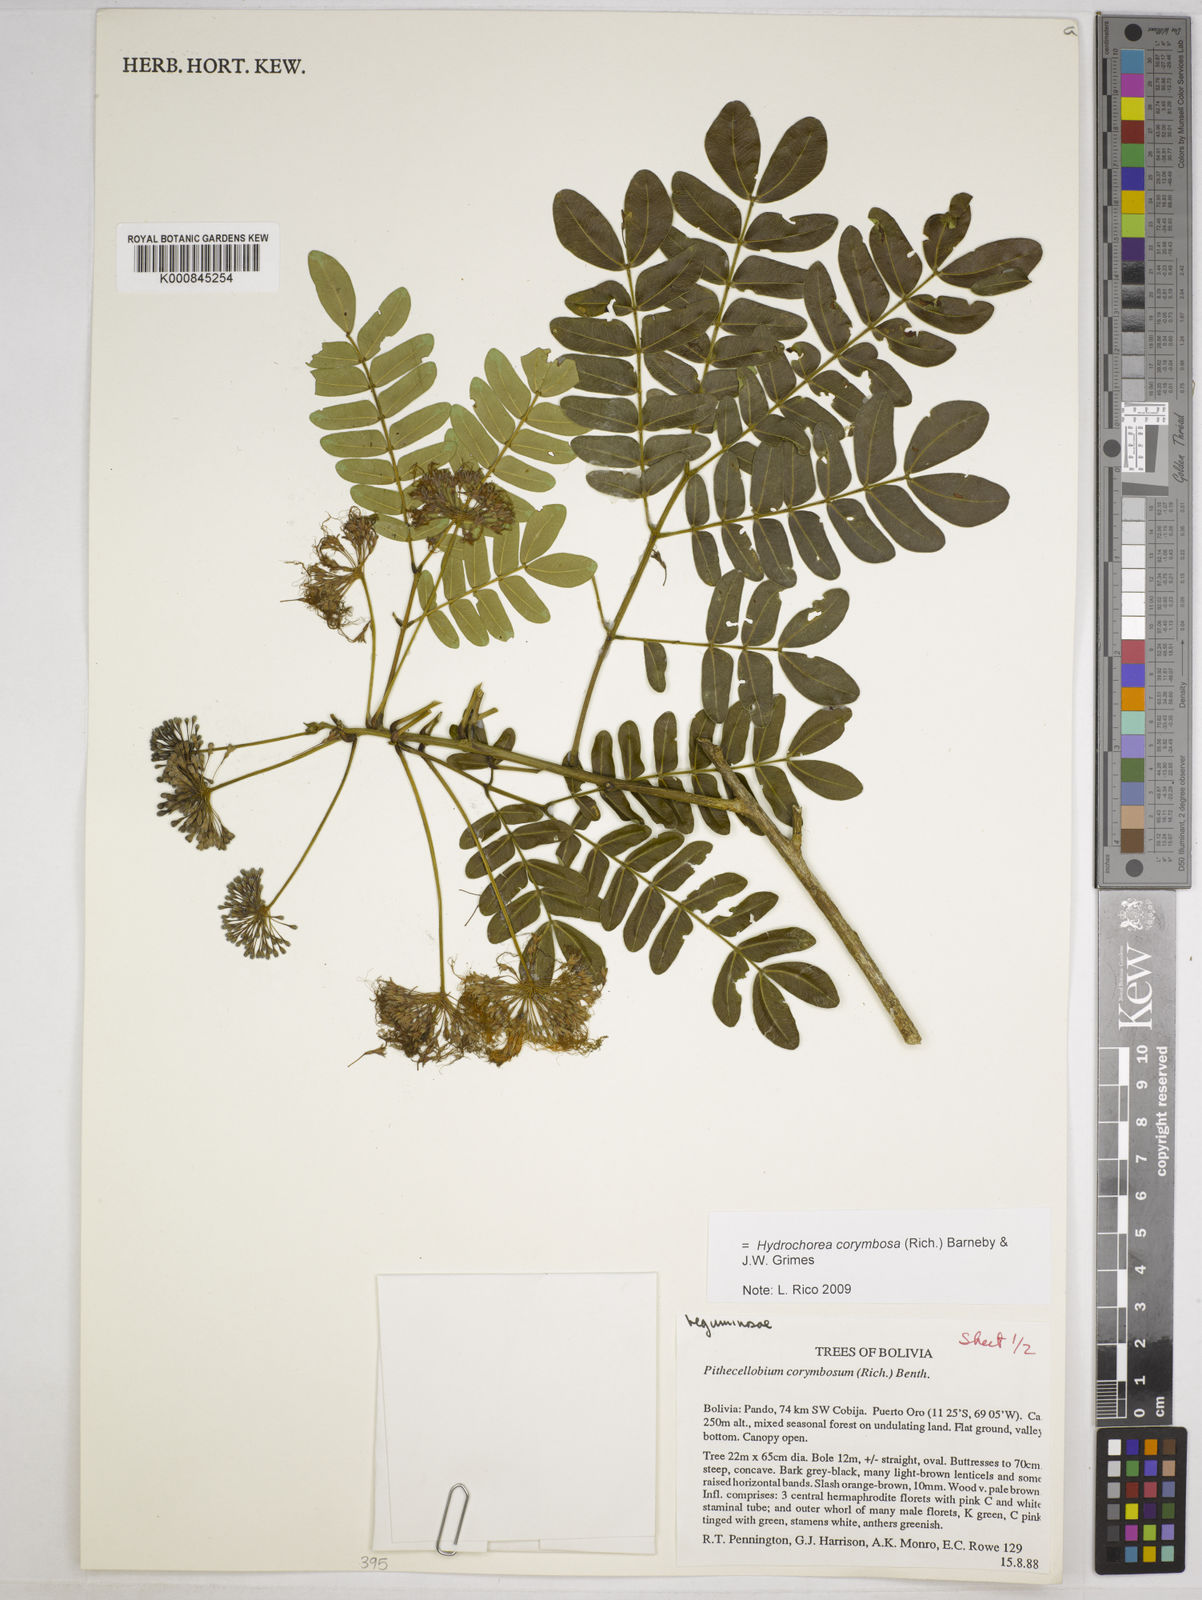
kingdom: Plantae
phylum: Tracheophyta
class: Magnoliopsida
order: Fabales
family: Fabaceae
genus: Hydrochorea
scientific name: Hydrochorea corymbosa
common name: Swamp manariballi
